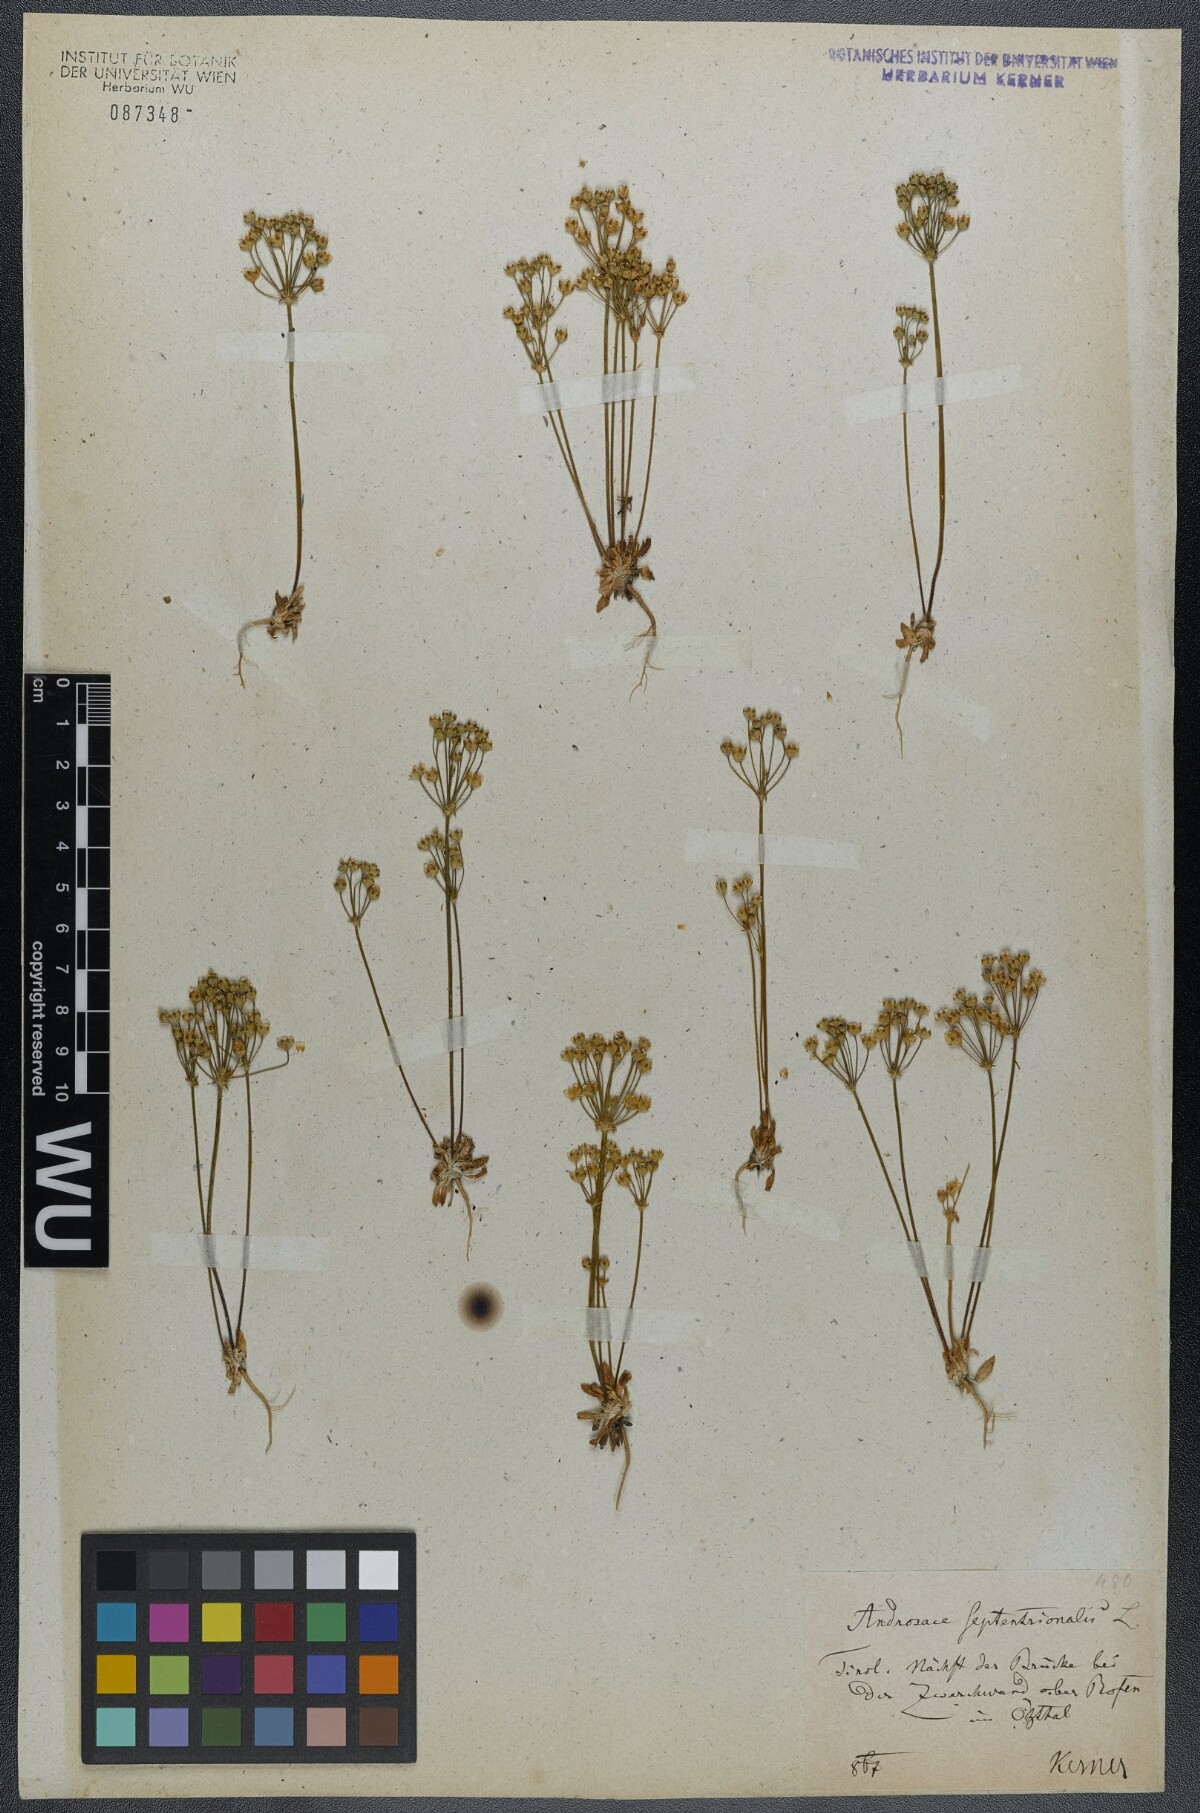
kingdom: Plantae
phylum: Tracheophyta
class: Magnoliopsida
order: Ericales
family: Primulaceae
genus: Androsace
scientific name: Androsace septentrionalis
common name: Hairy northern fairy-candelabra
